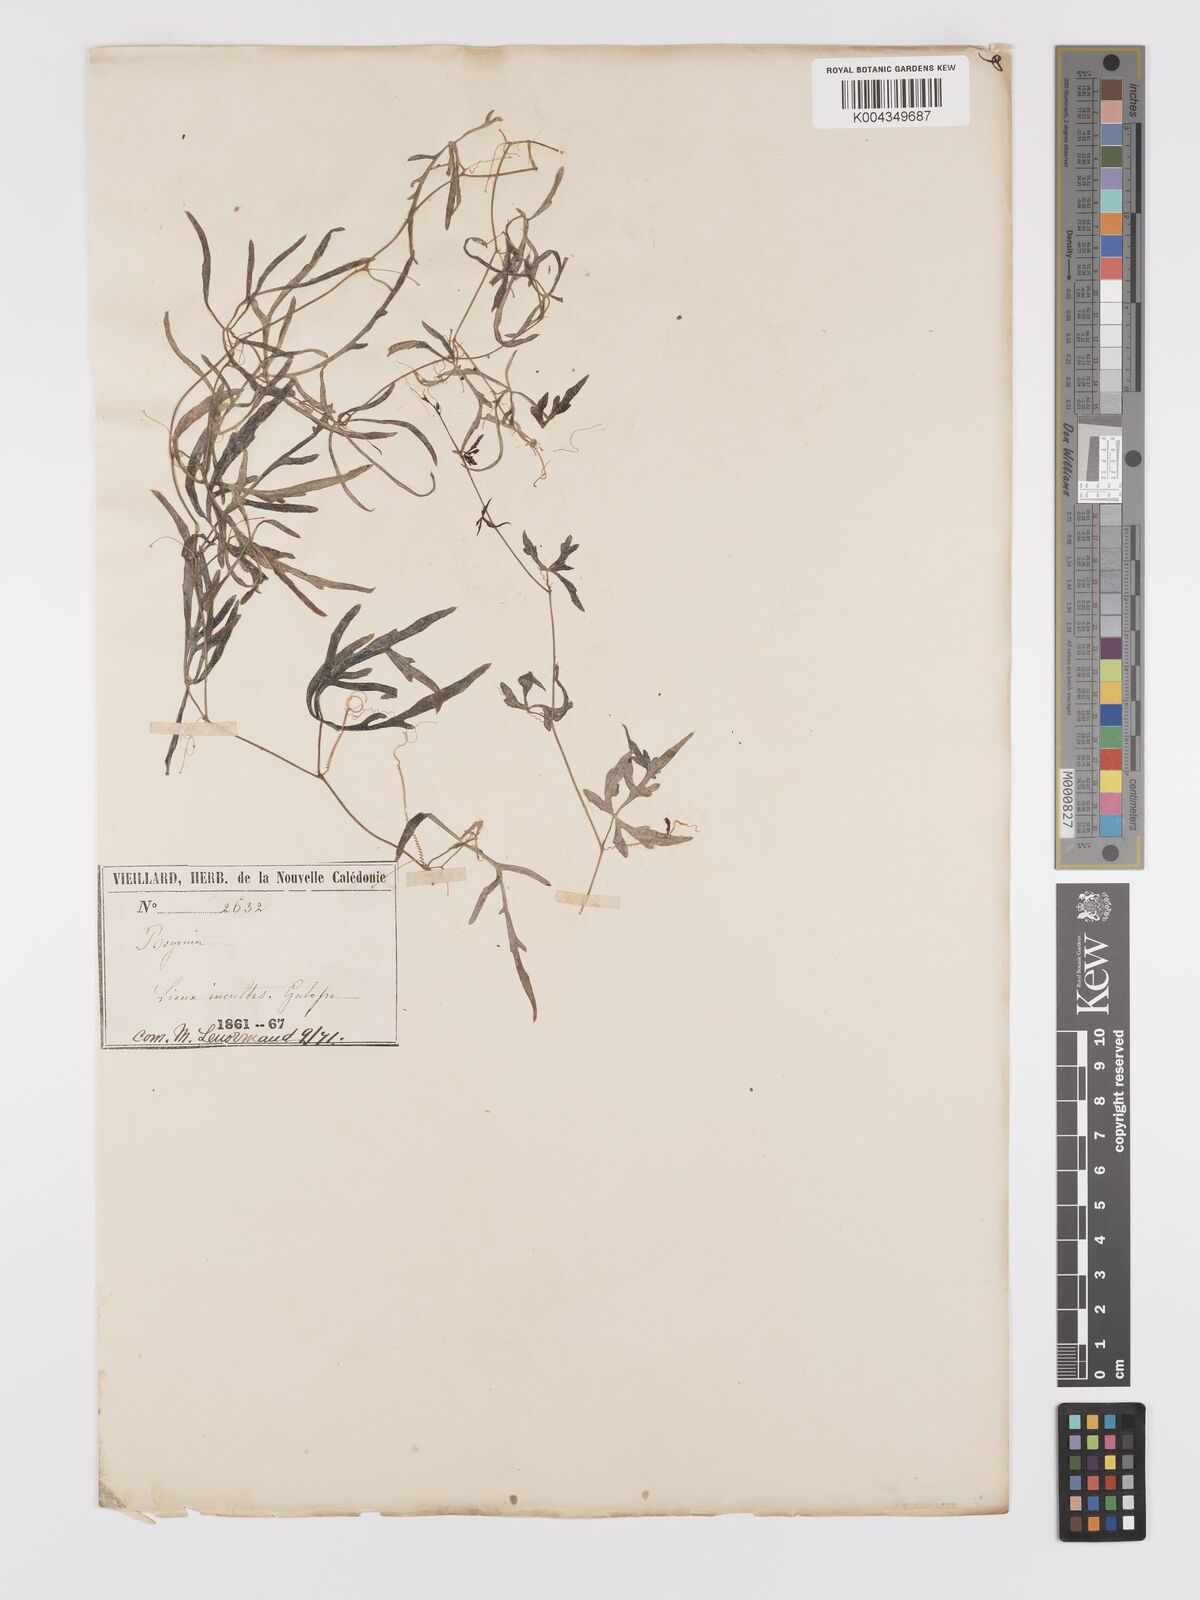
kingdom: Plantae
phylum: Tracheophyta
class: Magnoliopsida
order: Cucurbitales
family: Cucurbitaceae
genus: Zehneria
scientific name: Zehneria mucronata
